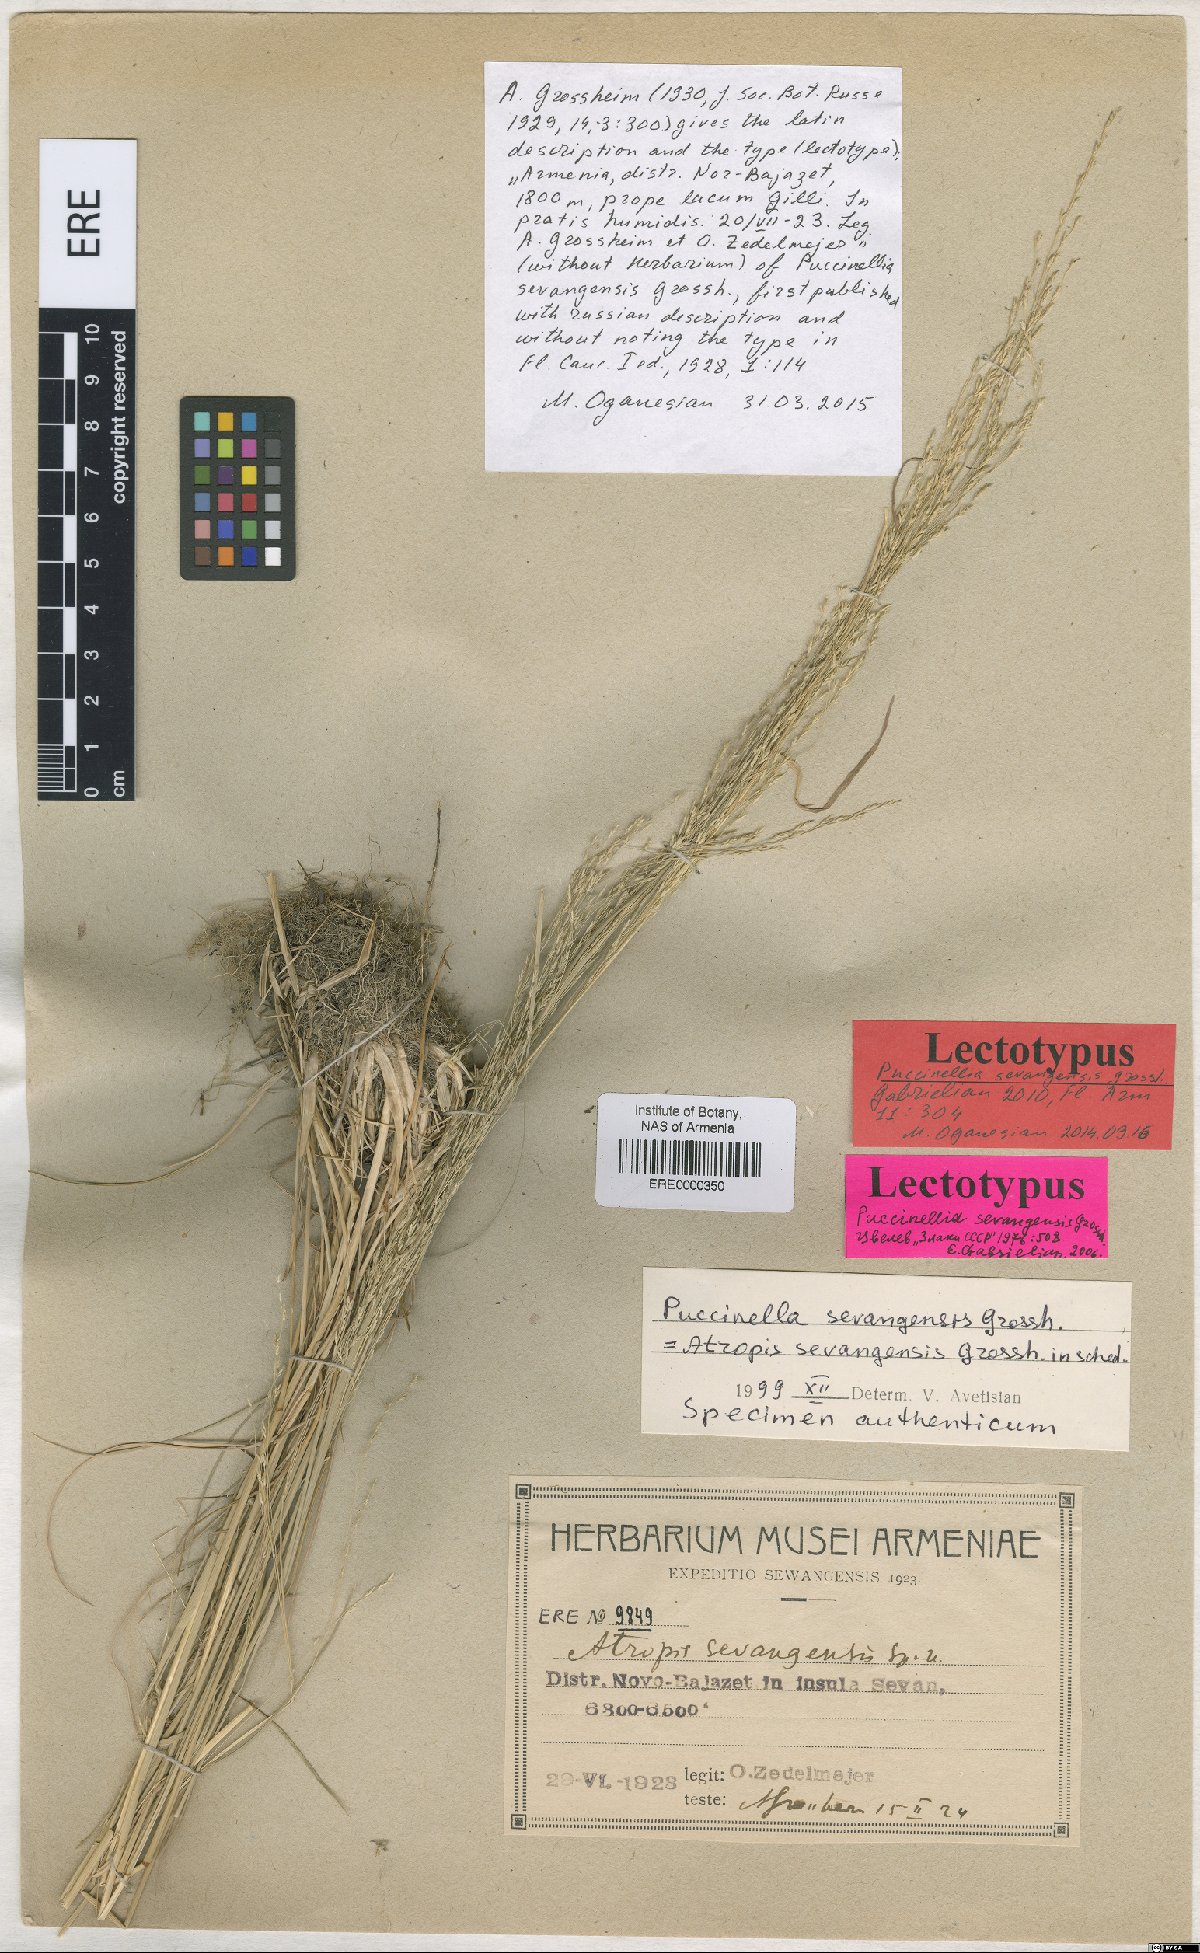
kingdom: Plantae
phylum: Tracheophyta
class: Liliopsida
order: Poales
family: Poaceae
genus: Puccinellia
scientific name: Puccinellia distans
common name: Weeping alkaligrass
